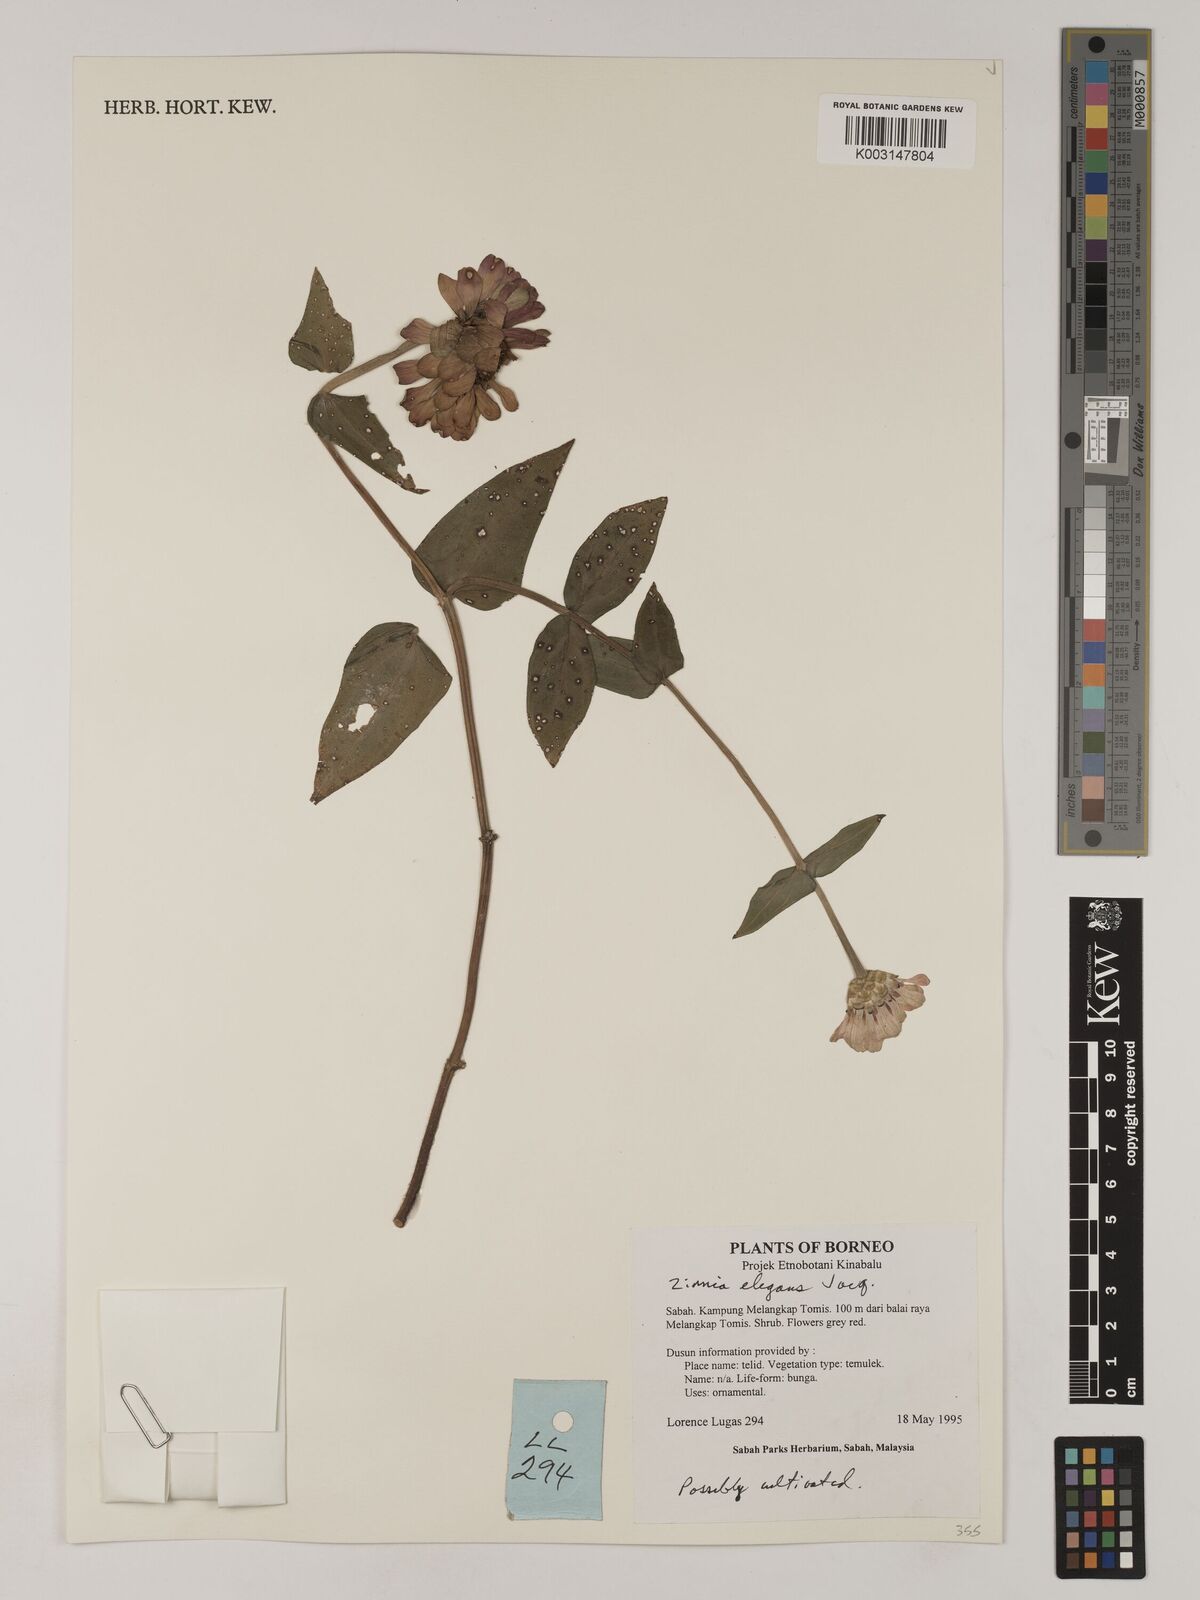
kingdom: Plantae
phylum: Tracheophyta
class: Magnoliopsida
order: Asterales
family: Asteraceae
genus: Zinnia
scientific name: Zinnia elegans
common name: Youth-and-age
